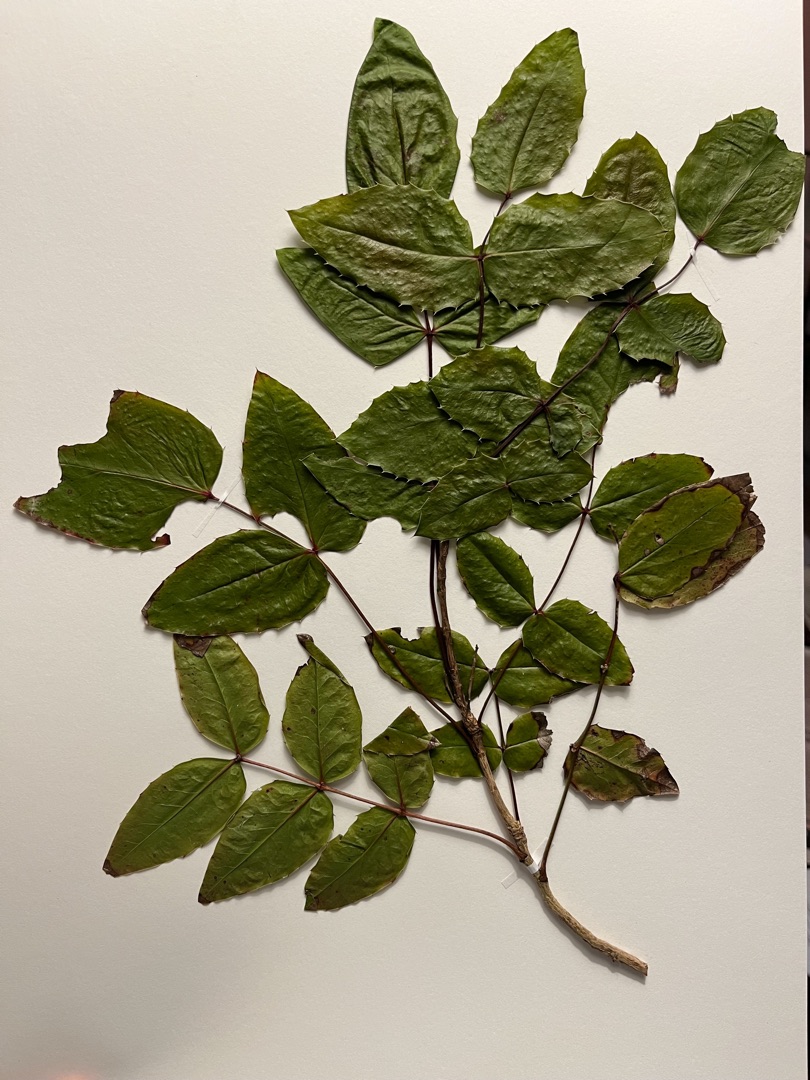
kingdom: Plantae
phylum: Tracheophyta
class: Magnoliopsida
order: Ranunculales
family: Berberidaceae
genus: Mahonia
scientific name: Mahonia aquifolium
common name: Almindelig mahonie
